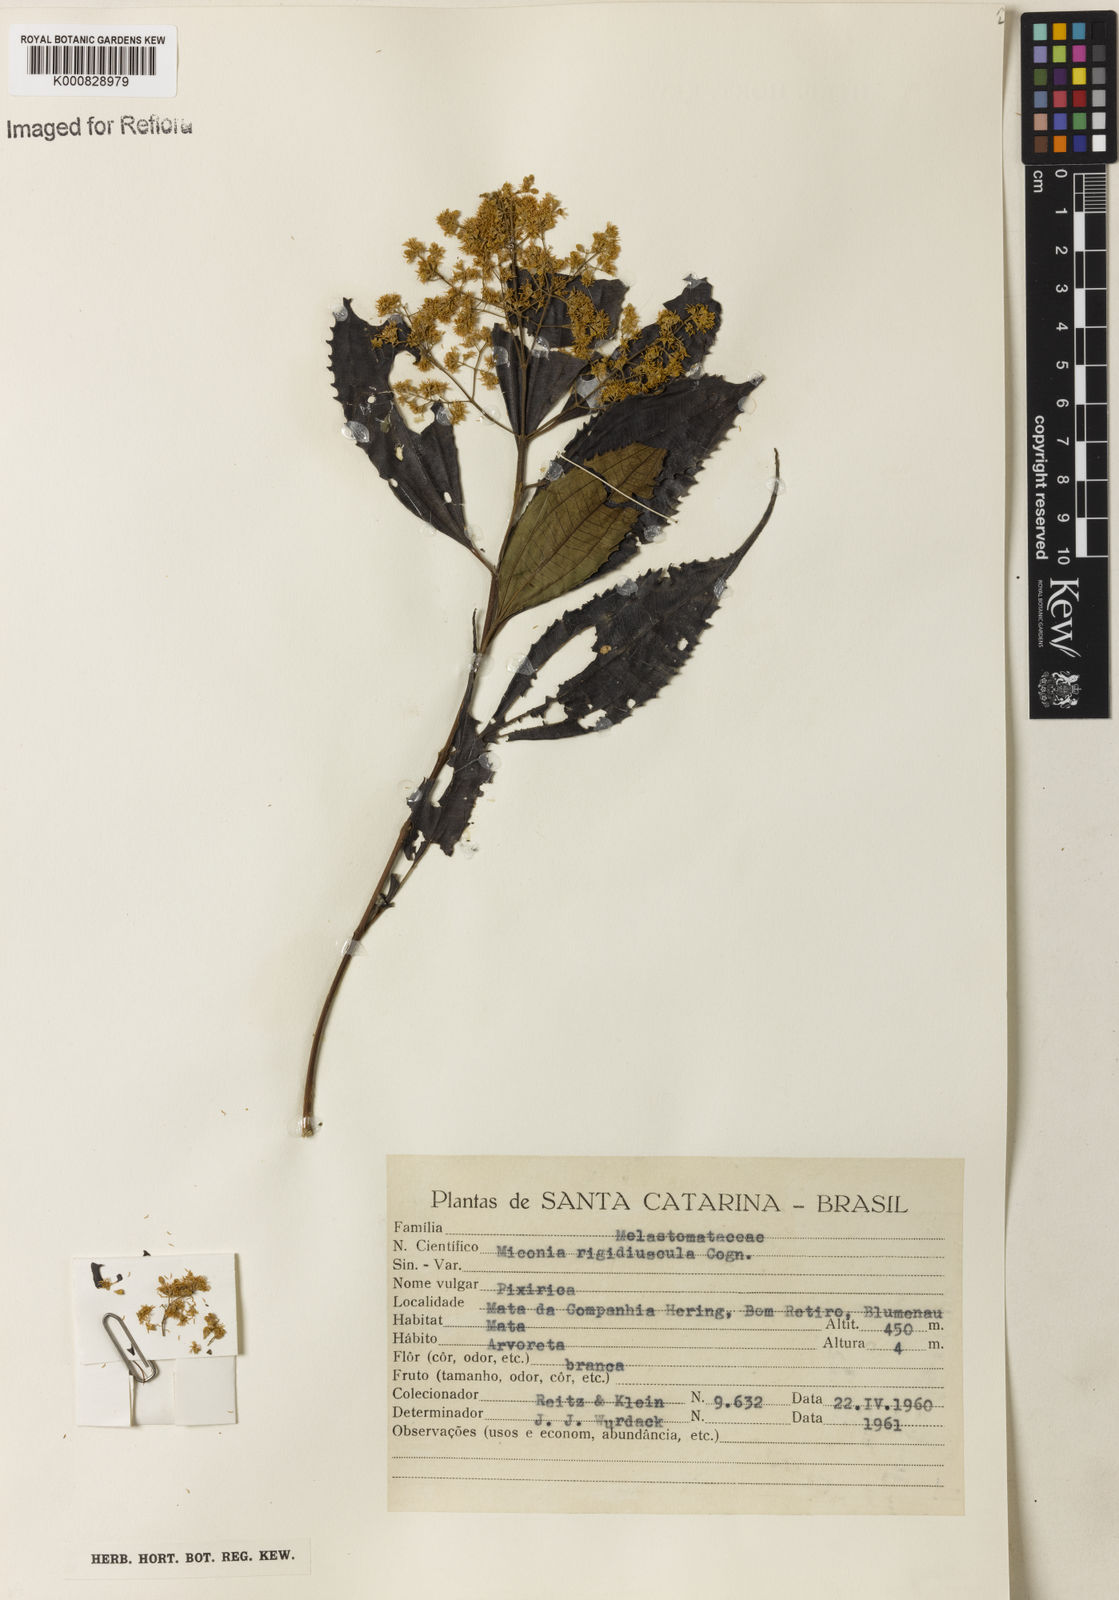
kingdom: Plantae
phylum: Tracheophyta
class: Magnoliopsida
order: Myrtales
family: Melastomataceae
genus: Miconia
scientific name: Miconia pusilliflora
